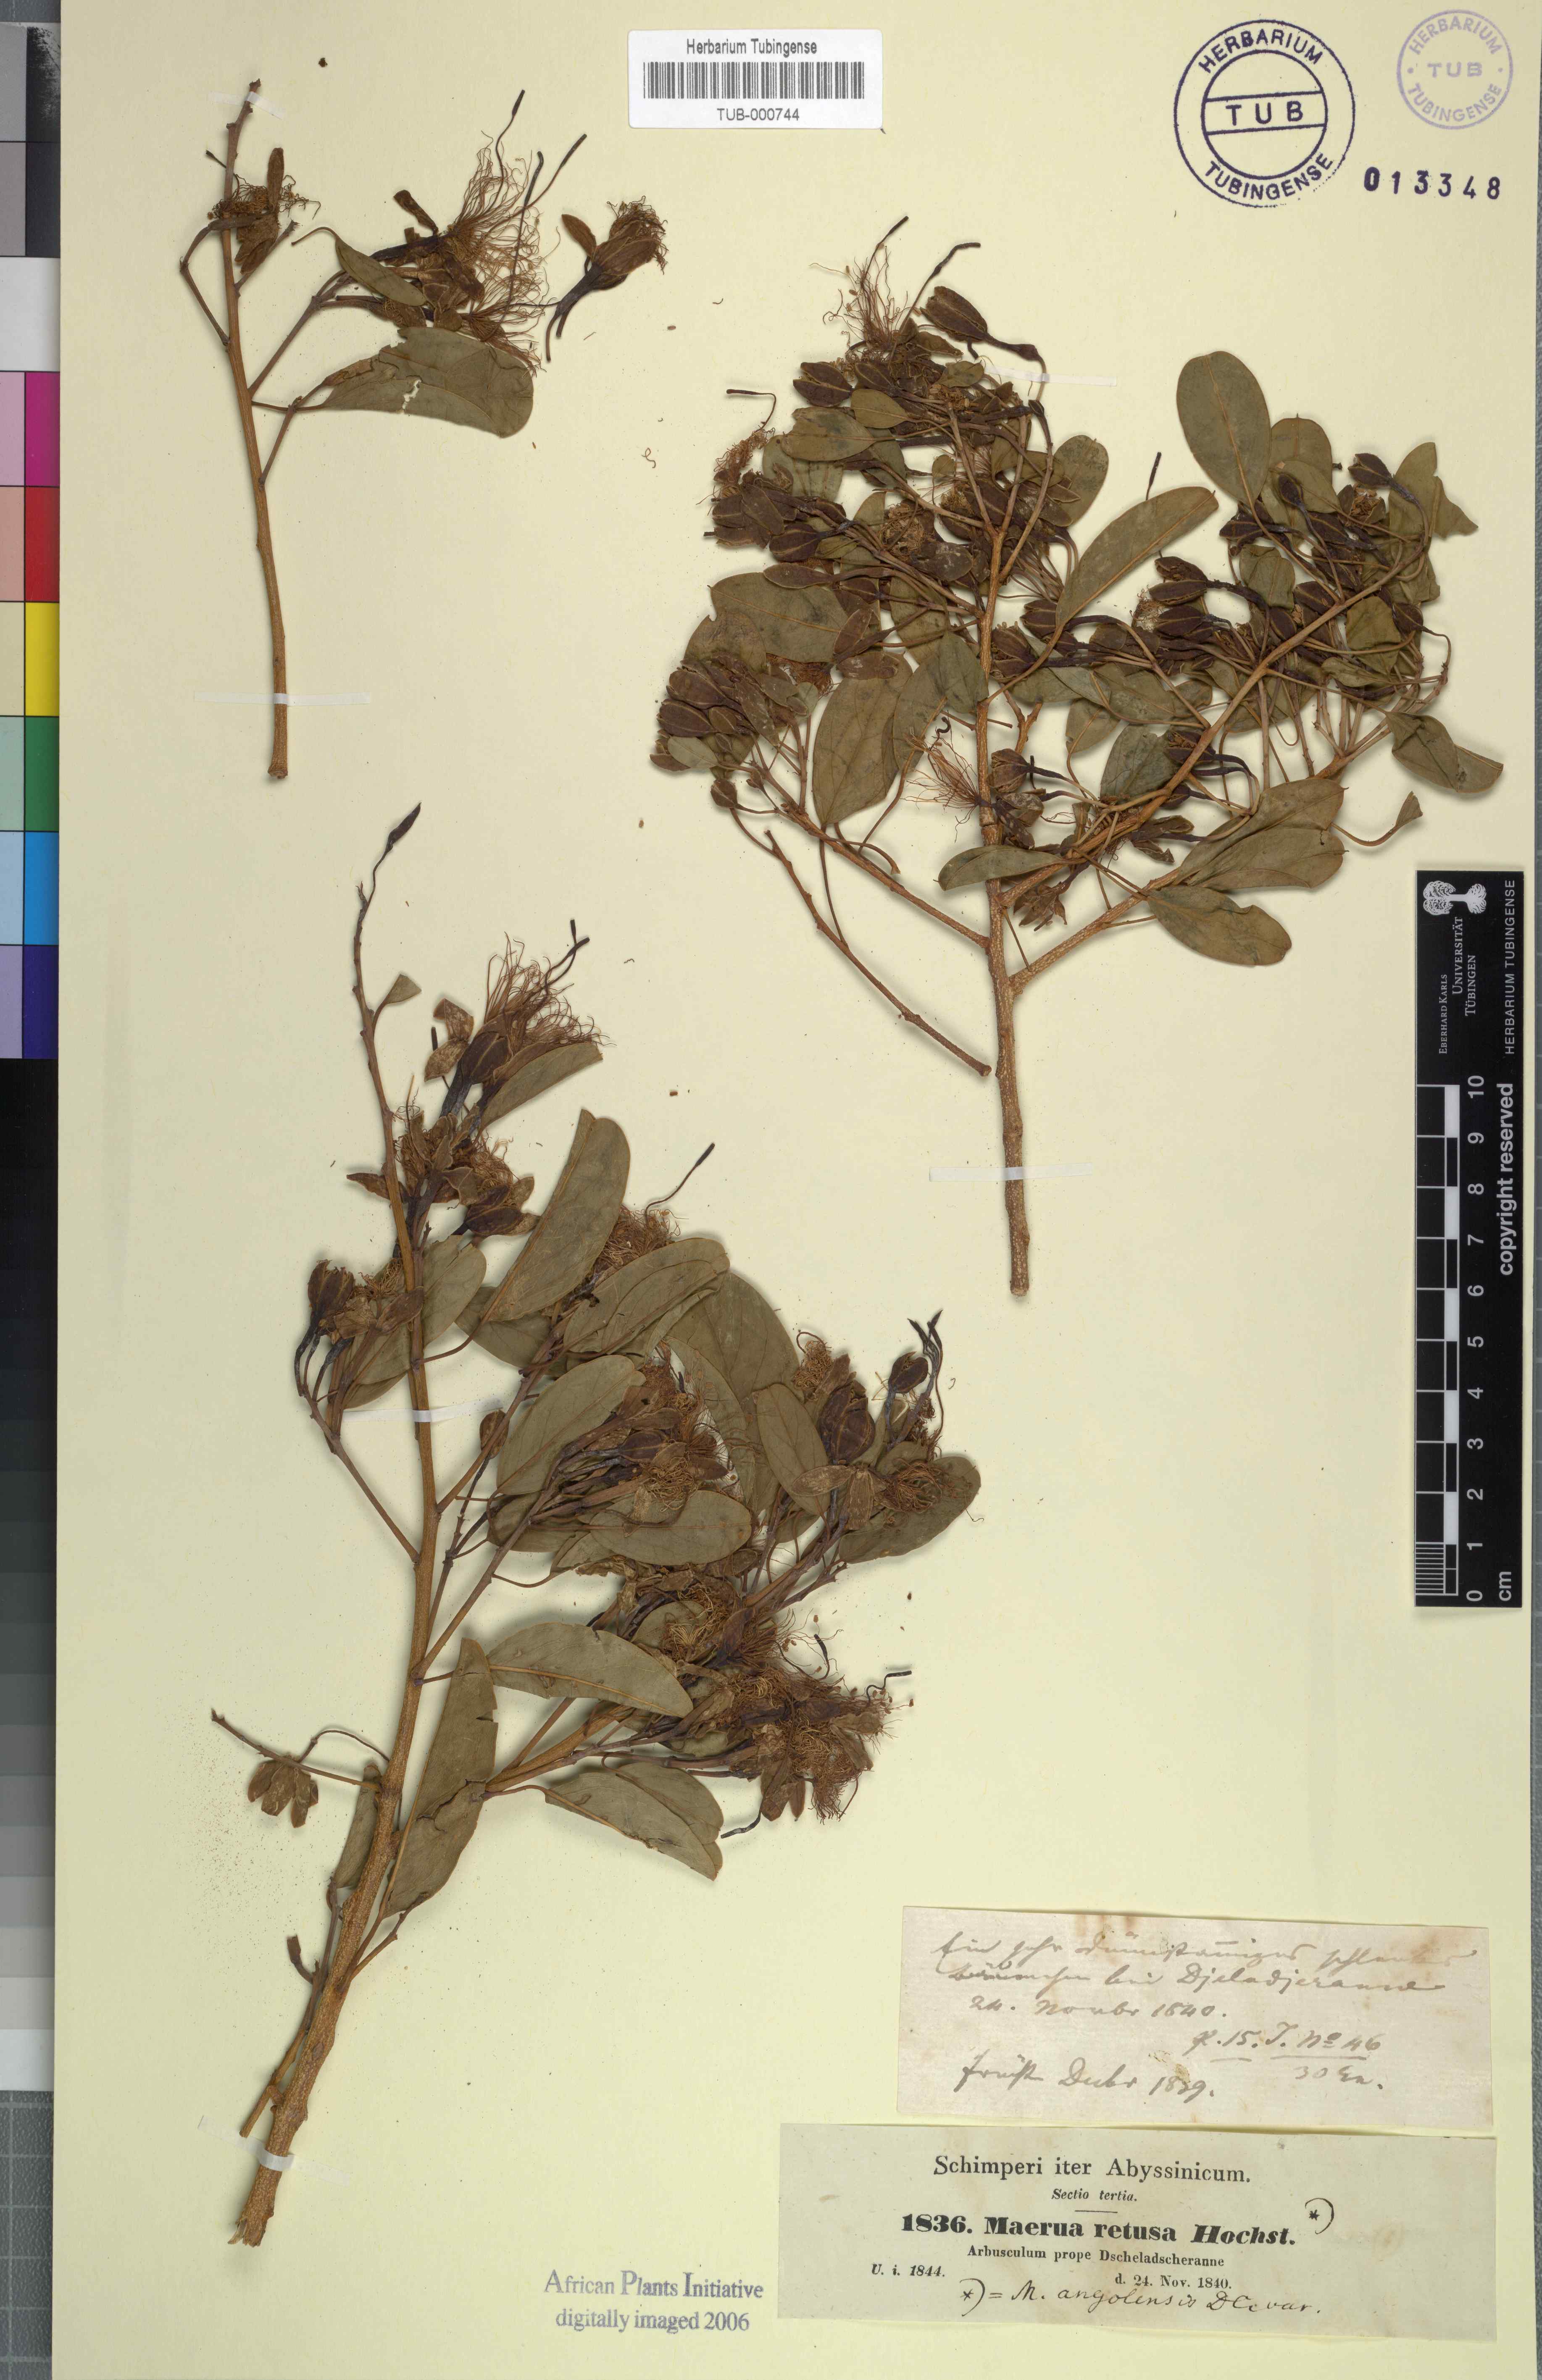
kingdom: Plantae
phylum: Tracheophyta
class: Magnoliopsida
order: Brassicales
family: Capparaceae
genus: Maerua
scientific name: Maerua angolensis
